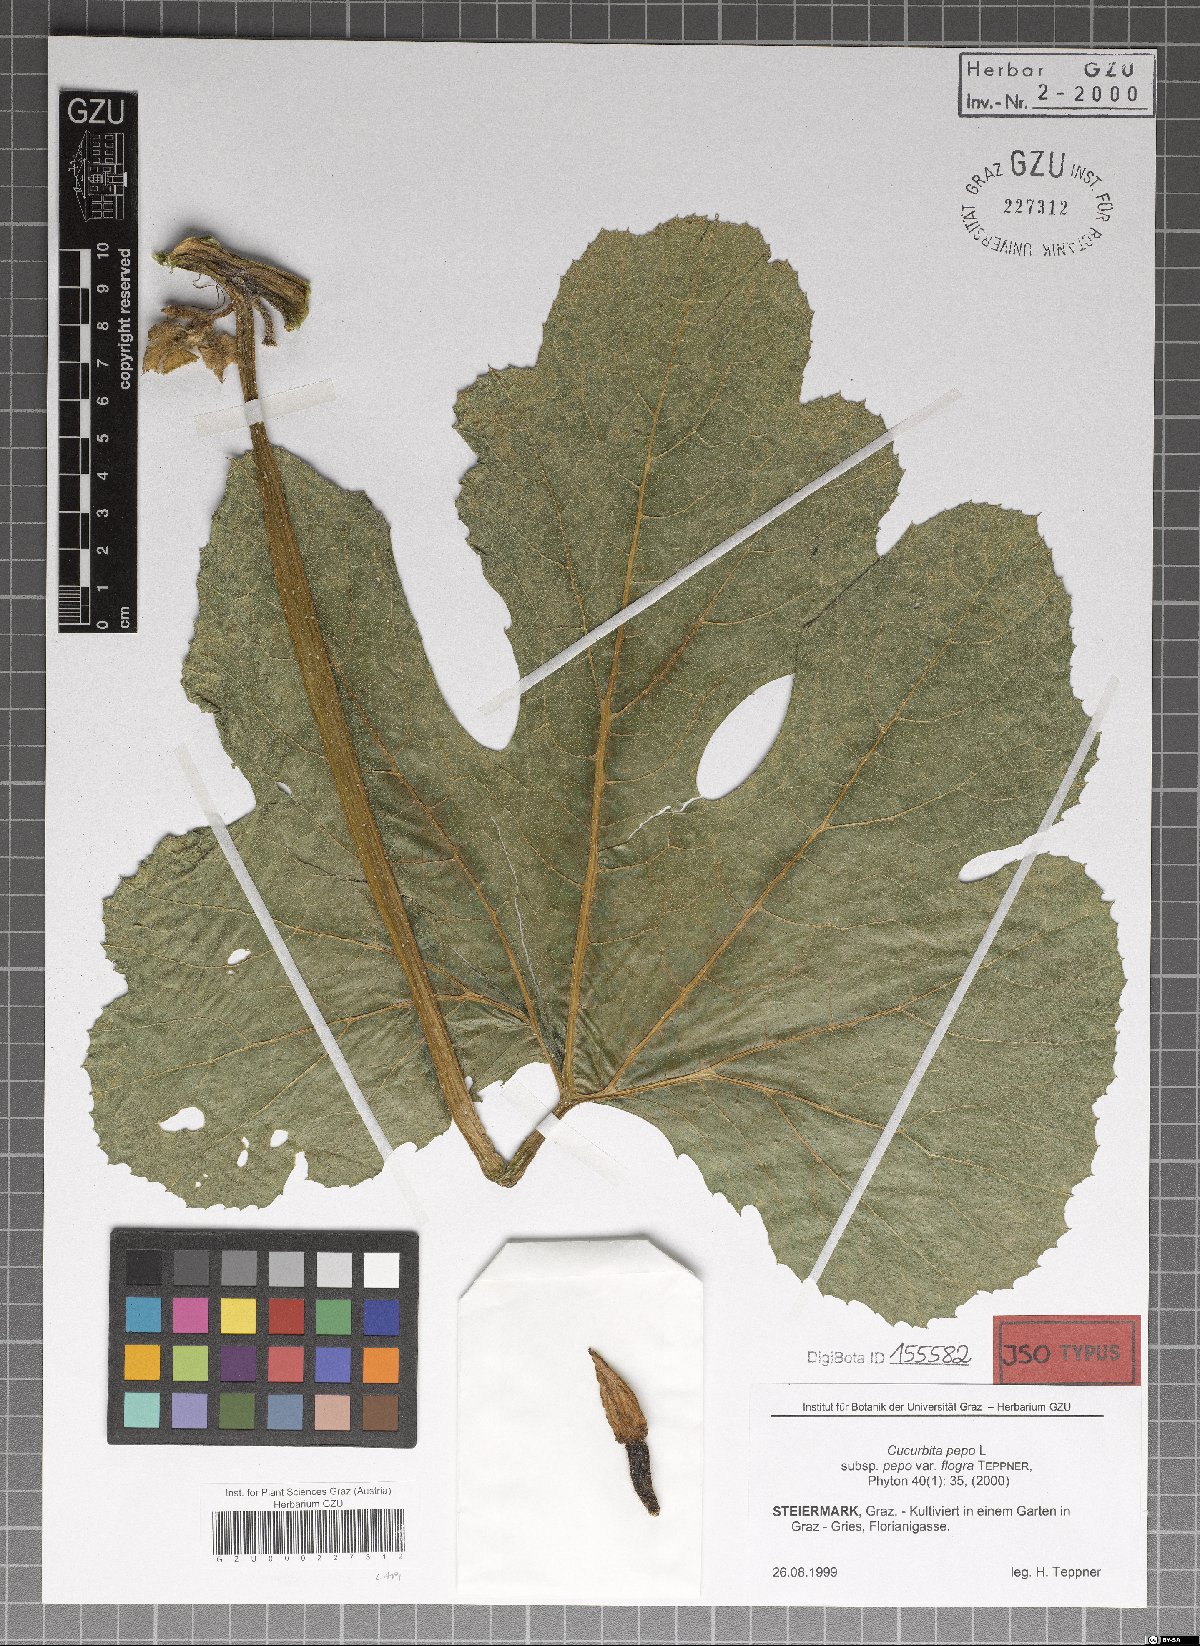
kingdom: Plantae
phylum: Tracheophyta
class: Magnoliopsida
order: Cucurbitales
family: Cucurbitaceae
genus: Cucurbita
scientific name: Cucurbita pepo
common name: Marrow
